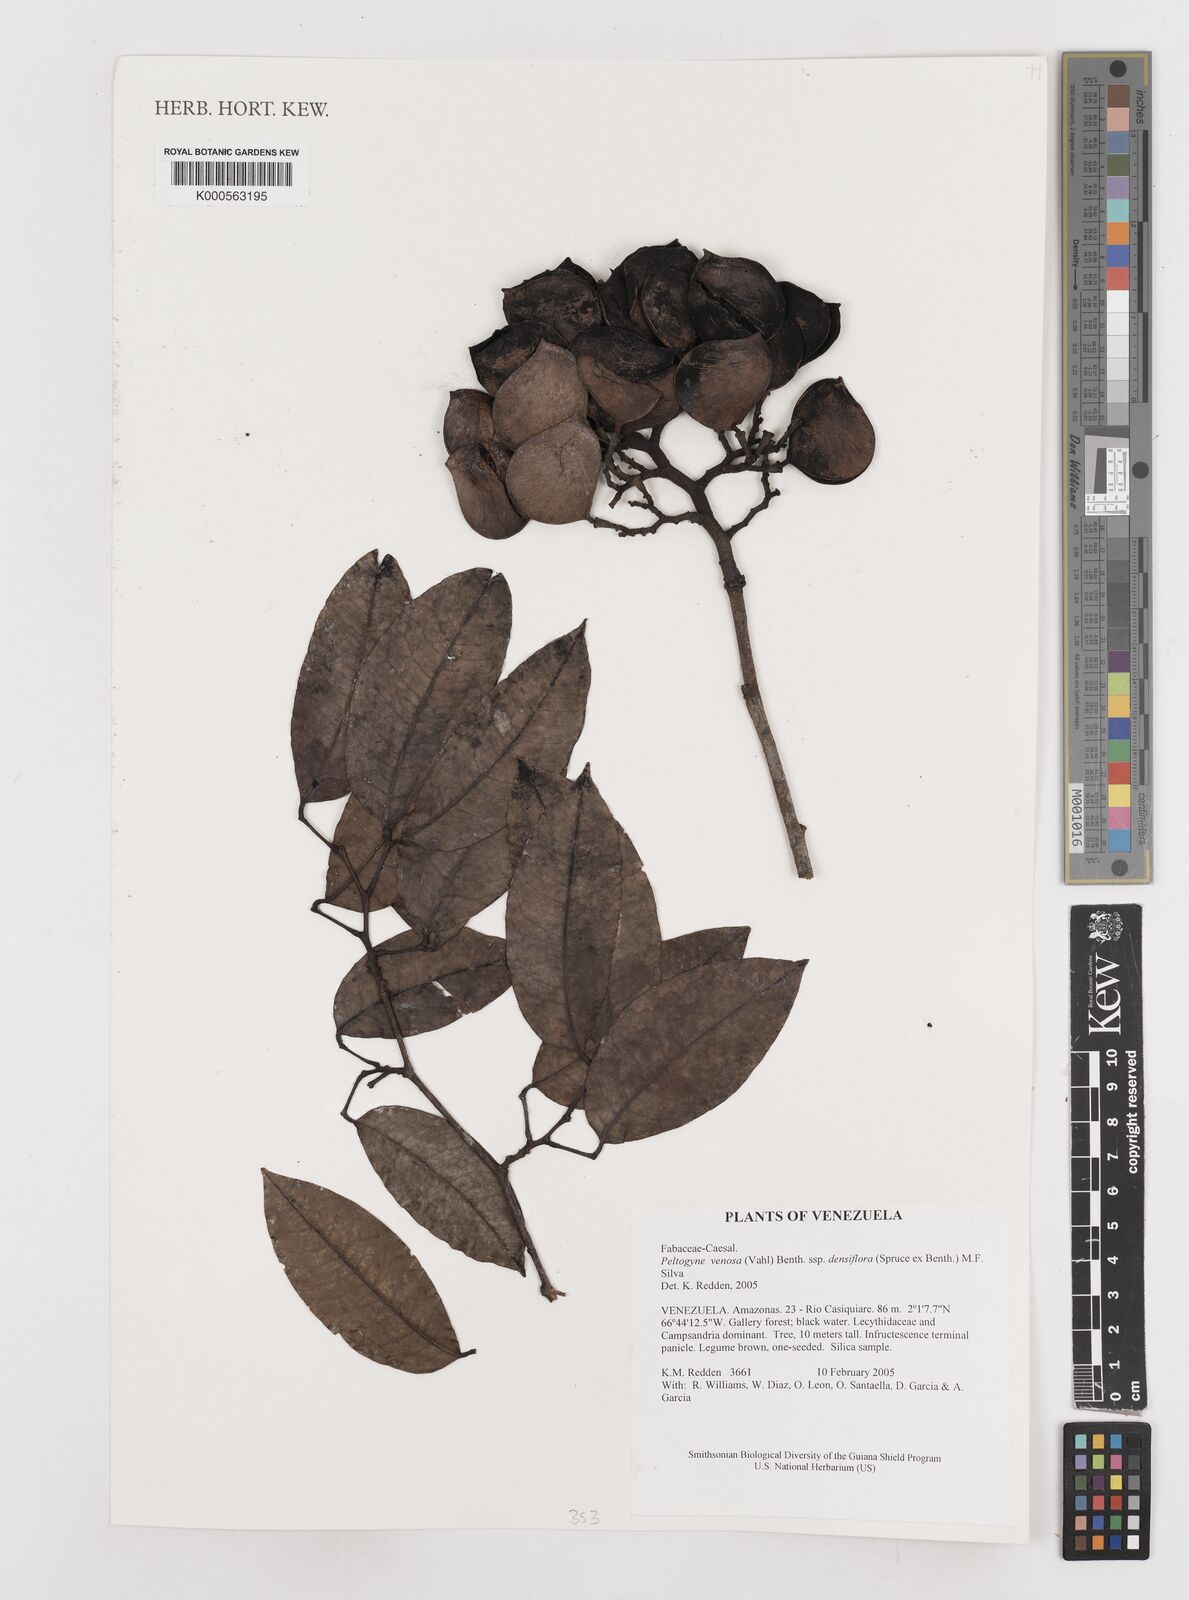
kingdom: Plantae
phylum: Tracheophyta
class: Magnoliopsida
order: Fabales
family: Fabaceae
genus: Peltogyne
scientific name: Peltogyne venosa
